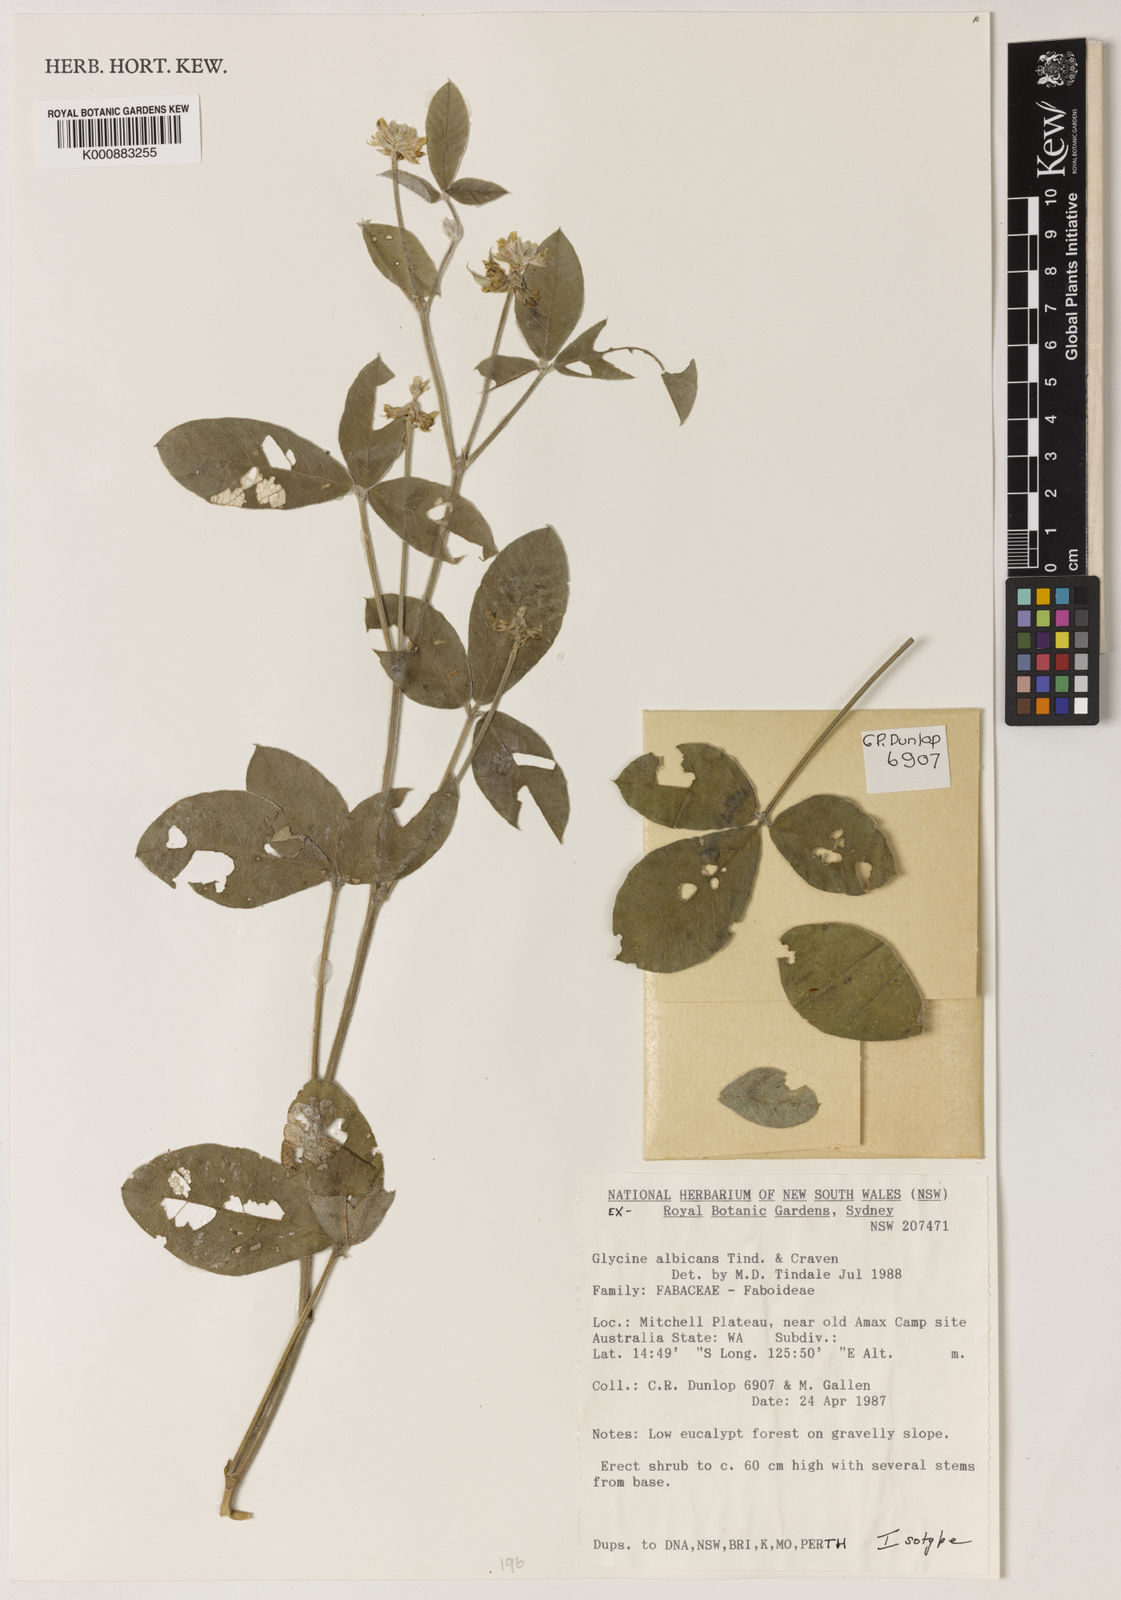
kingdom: Plantae
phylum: Tracheophyta
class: Magnoliopsida
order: Fabales
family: Fabaceae
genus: Glycine
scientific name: Glycine albicans
